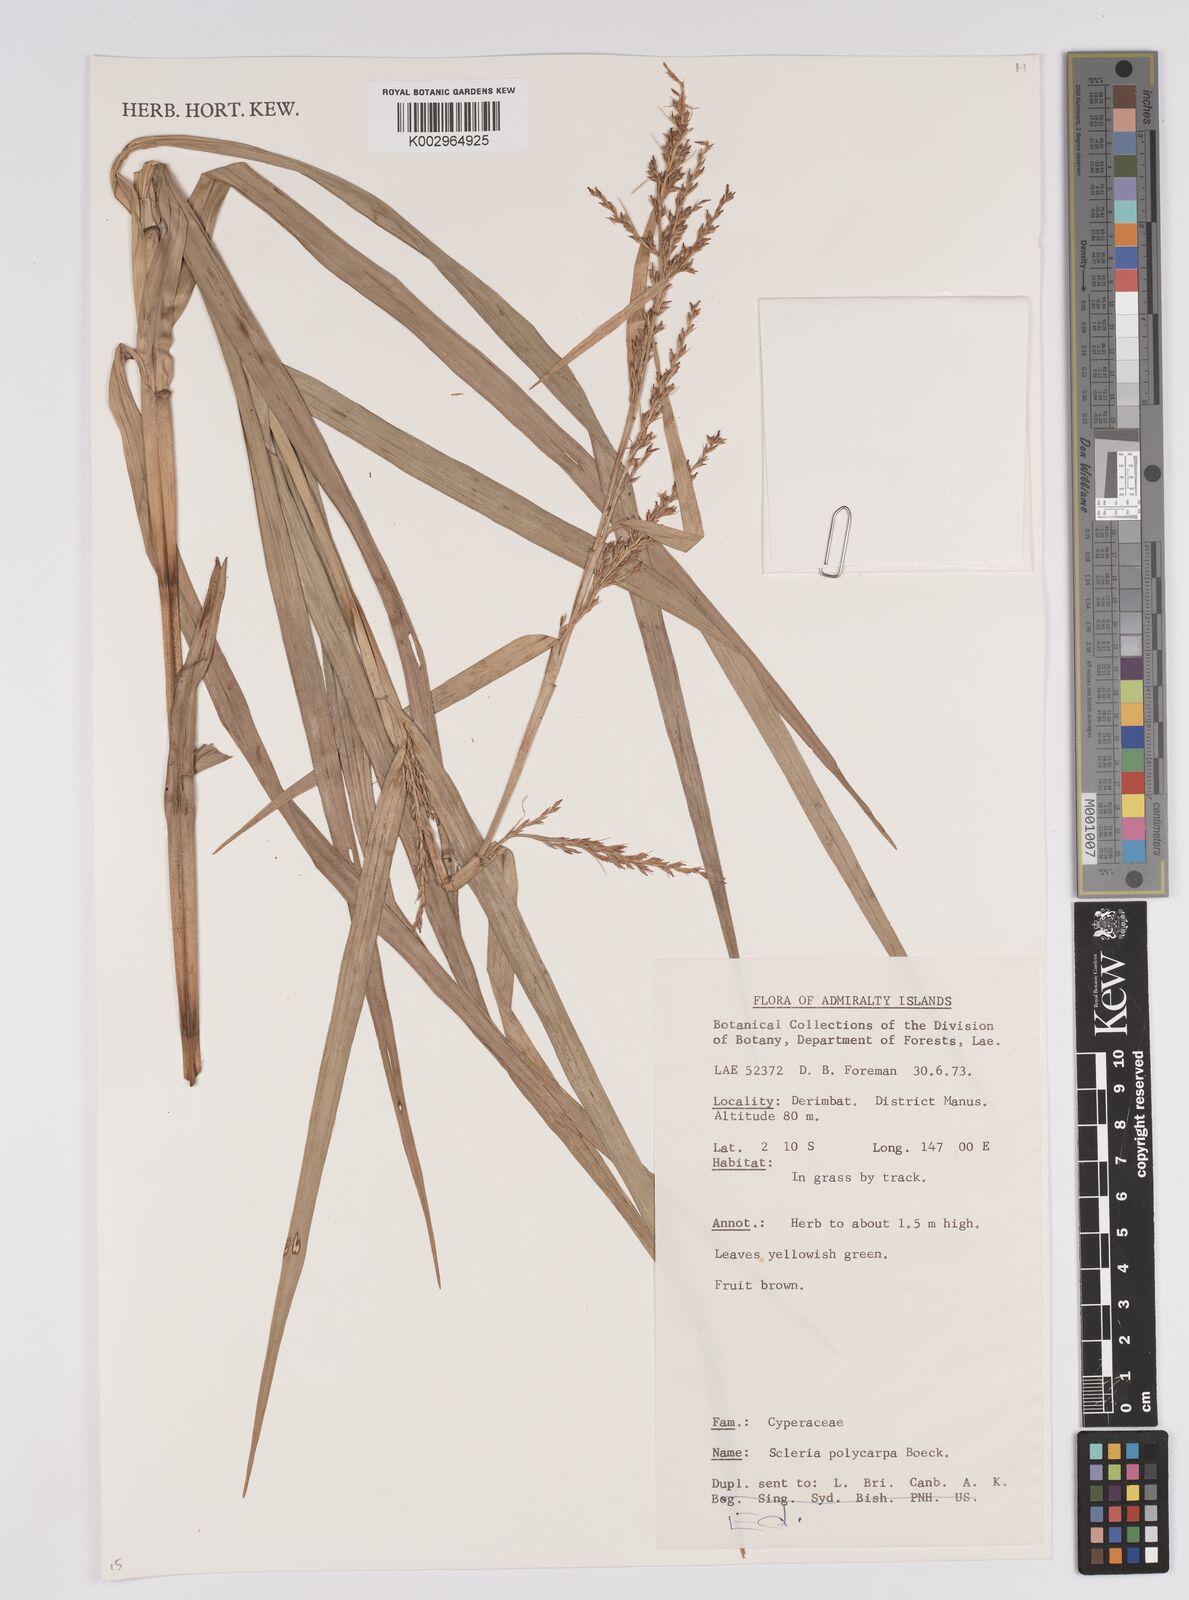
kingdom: Plantae
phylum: Tracheophyta
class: Liliopsida
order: Poales
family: Cyperaceae
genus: Scleria
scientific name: Scleria polycarpa
